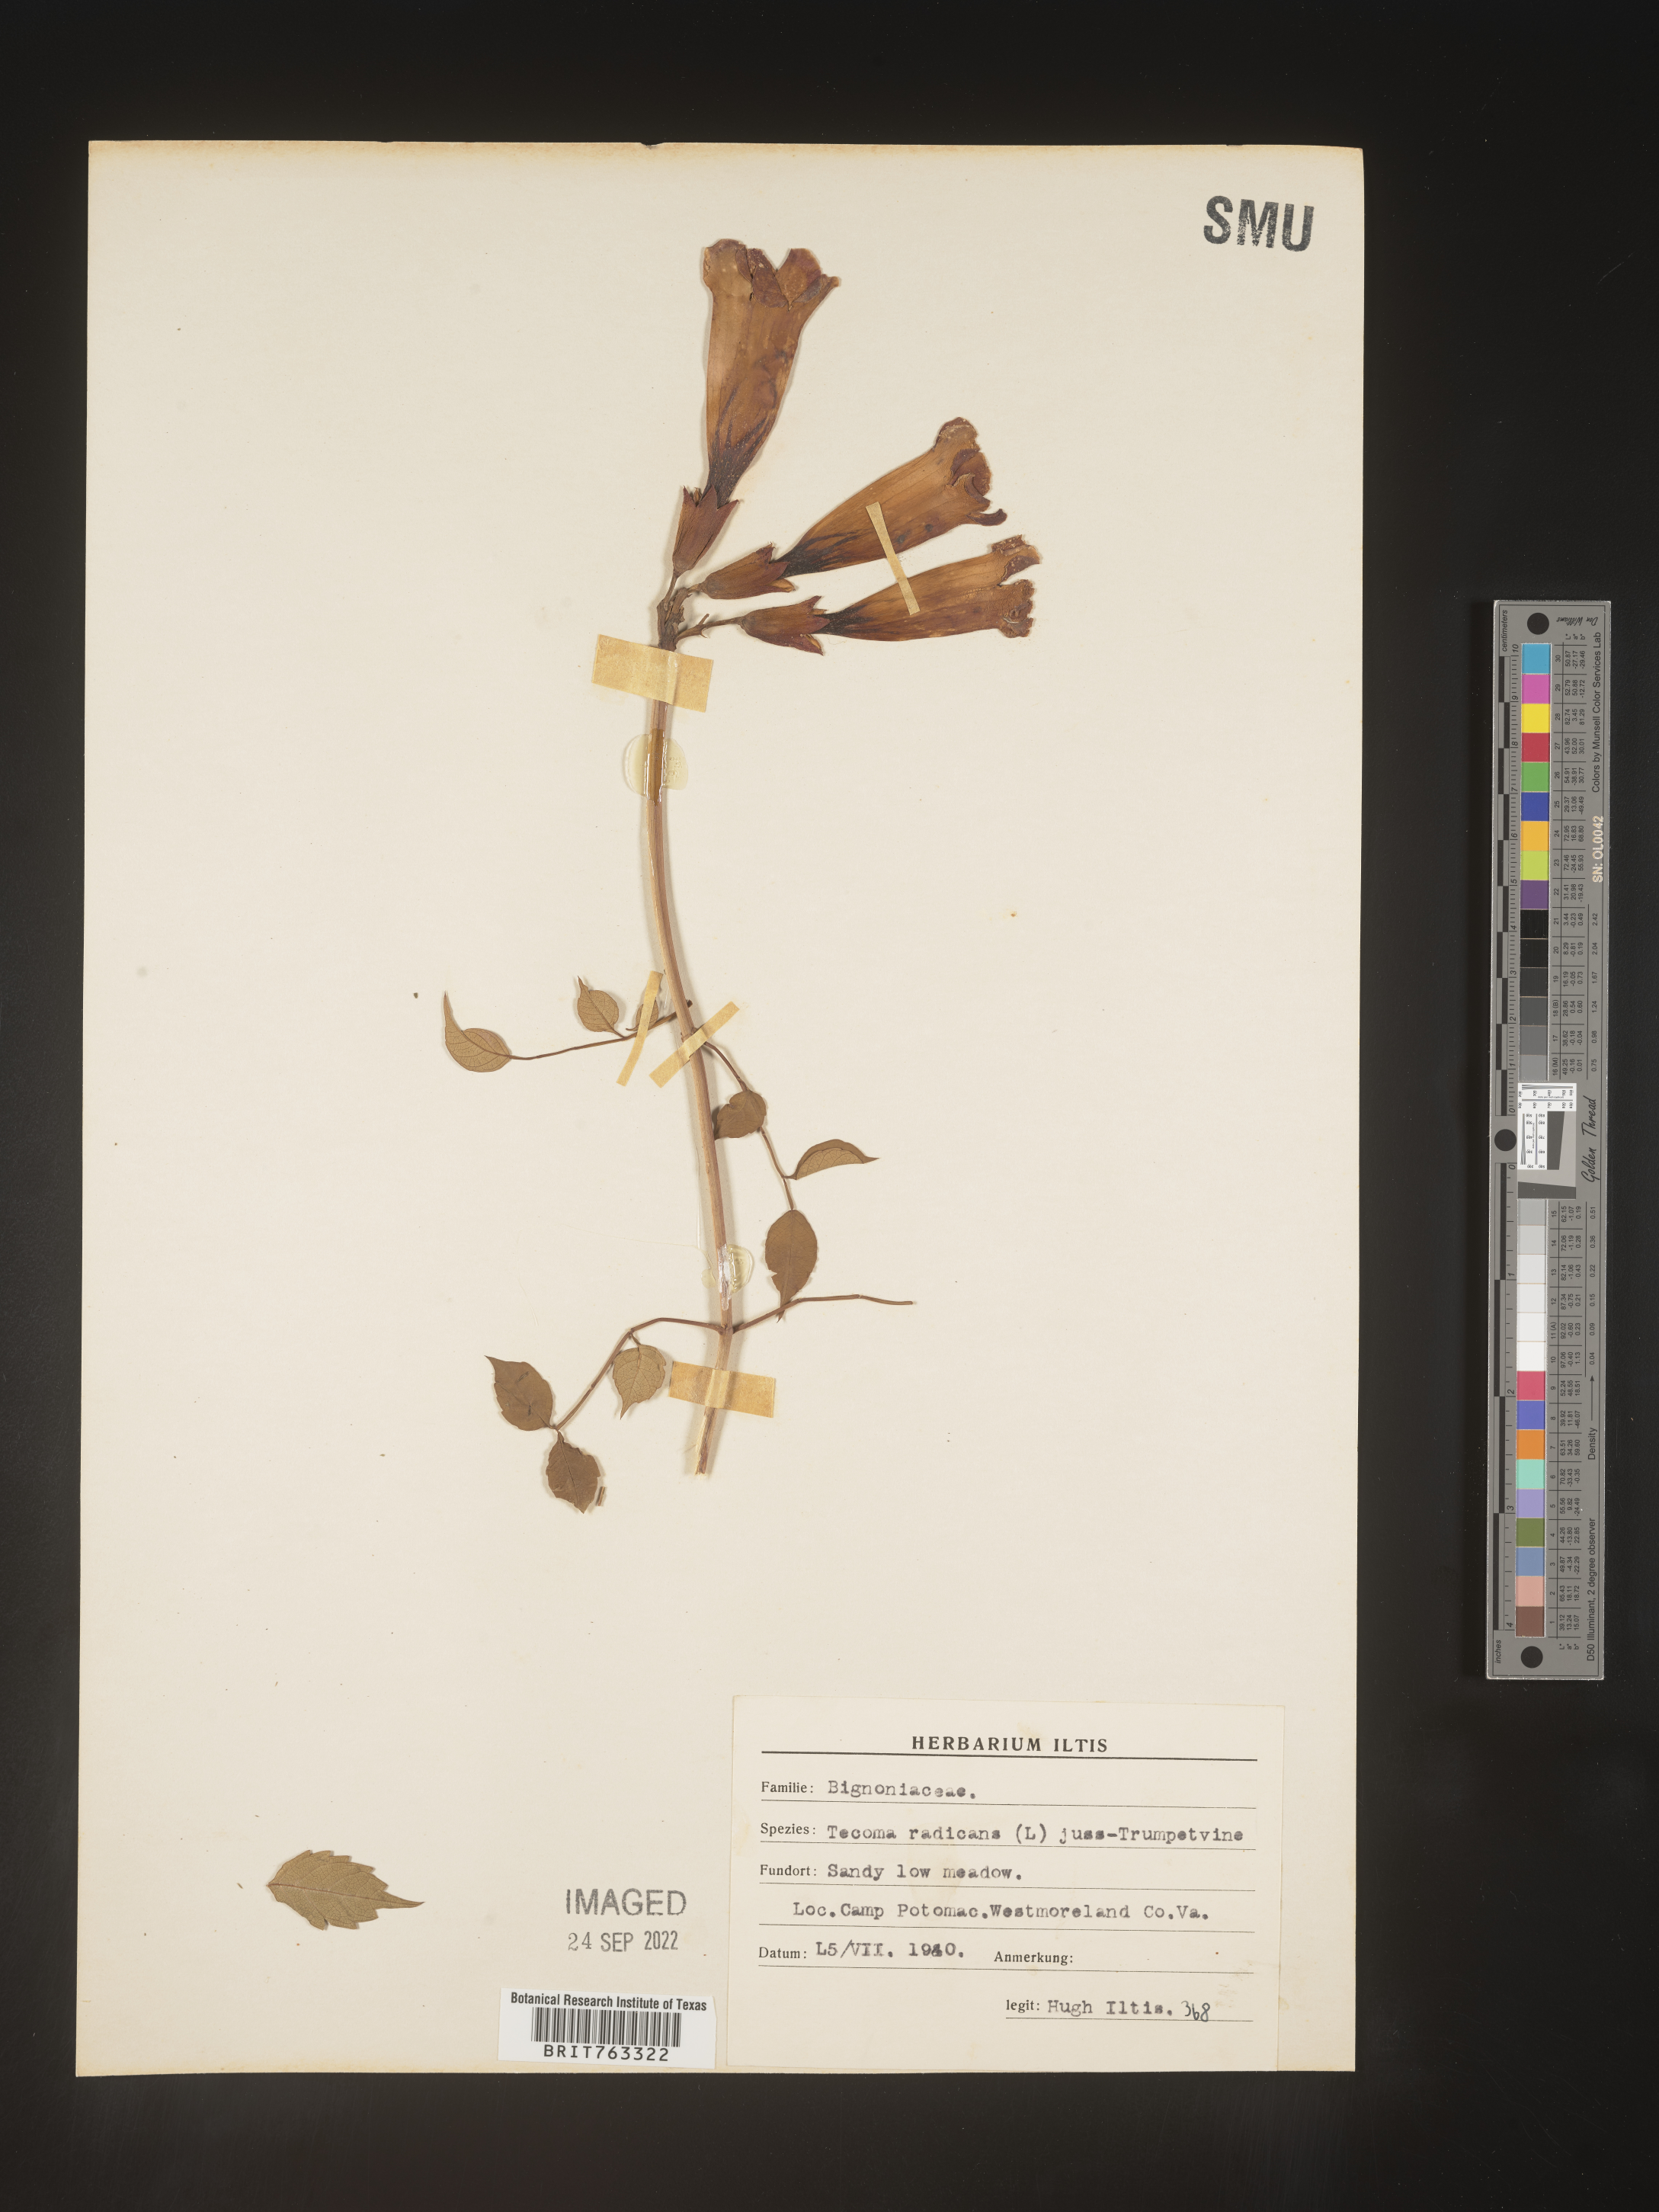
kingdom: Plantae
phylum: Tracheophyta
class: Magnoliopsida
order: Lamiales
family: Bignoniaceae
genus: Campsis
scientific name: Campsis radicans
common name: Trumpet-creeper
